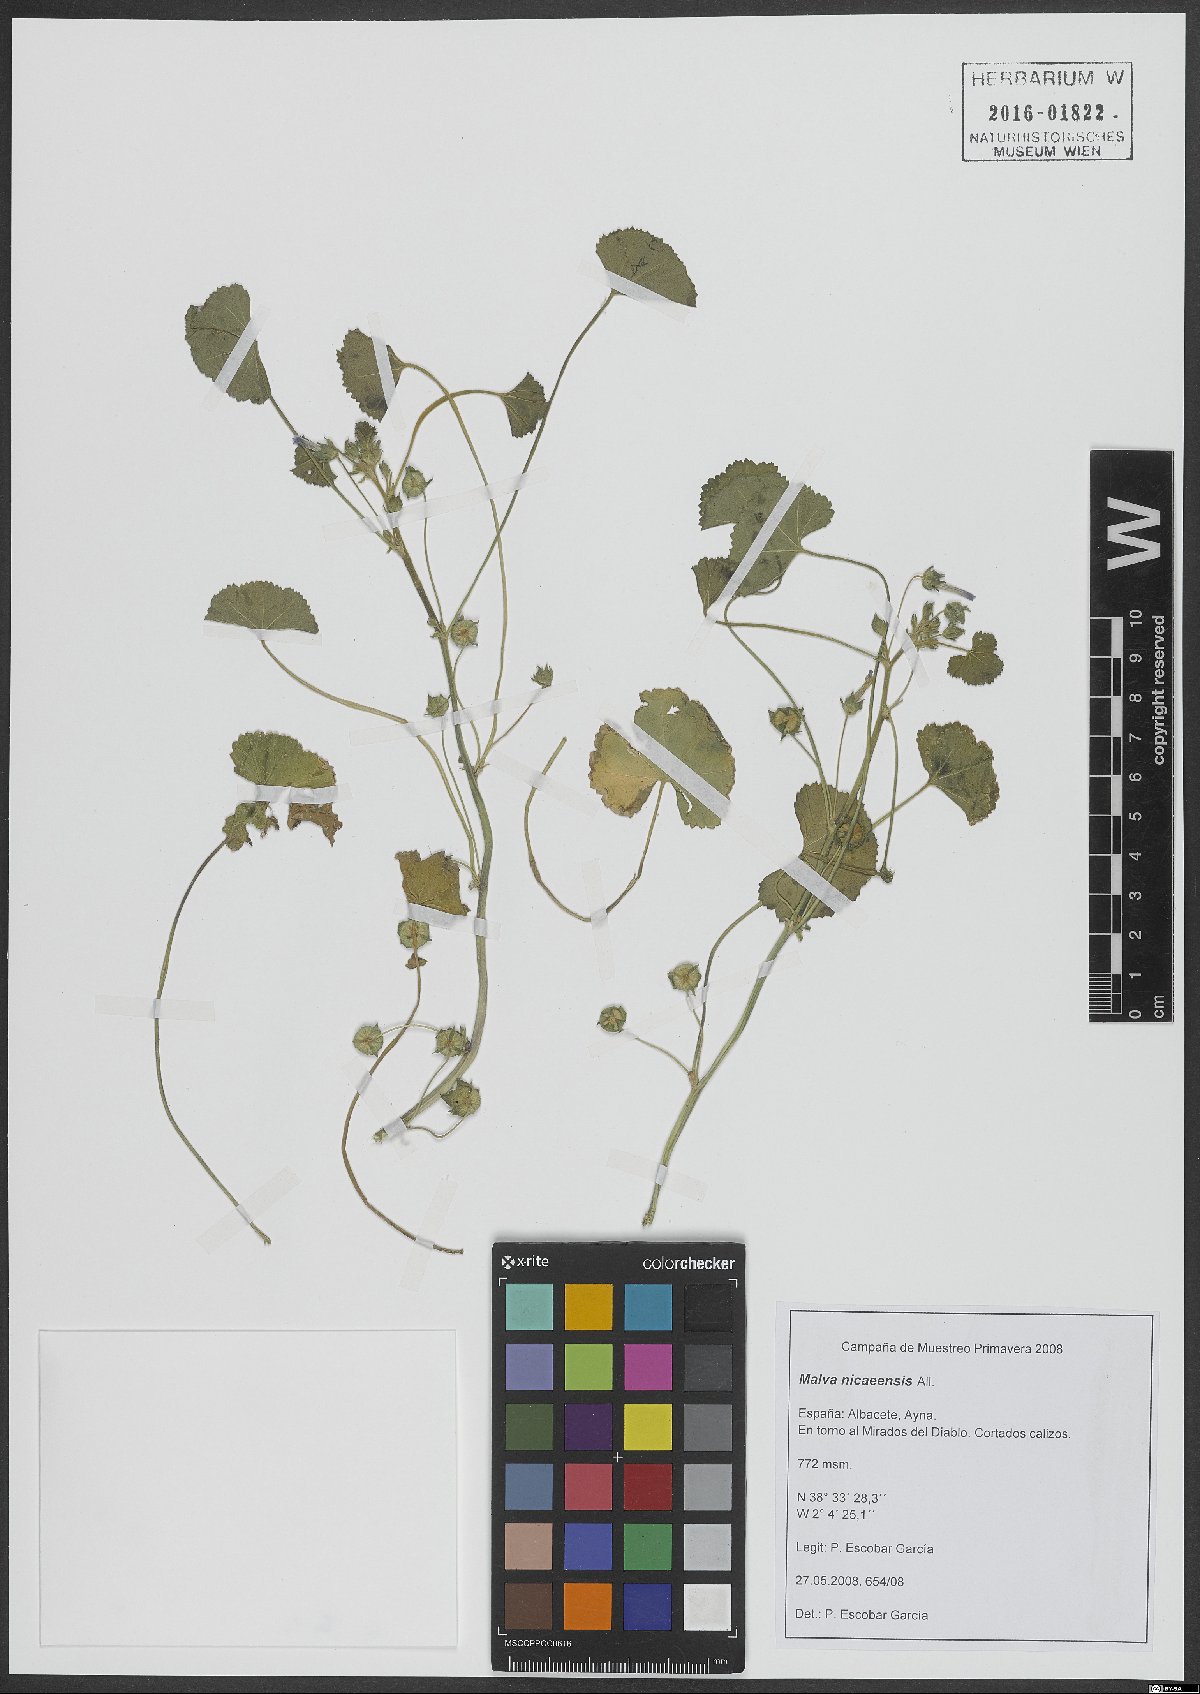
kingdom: Plantae
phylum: Tracheophyta
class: Magnoliopsida
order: Malvales
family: Malvaceae
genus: Malva
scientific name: Malva nicaeensis
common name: French mallow
